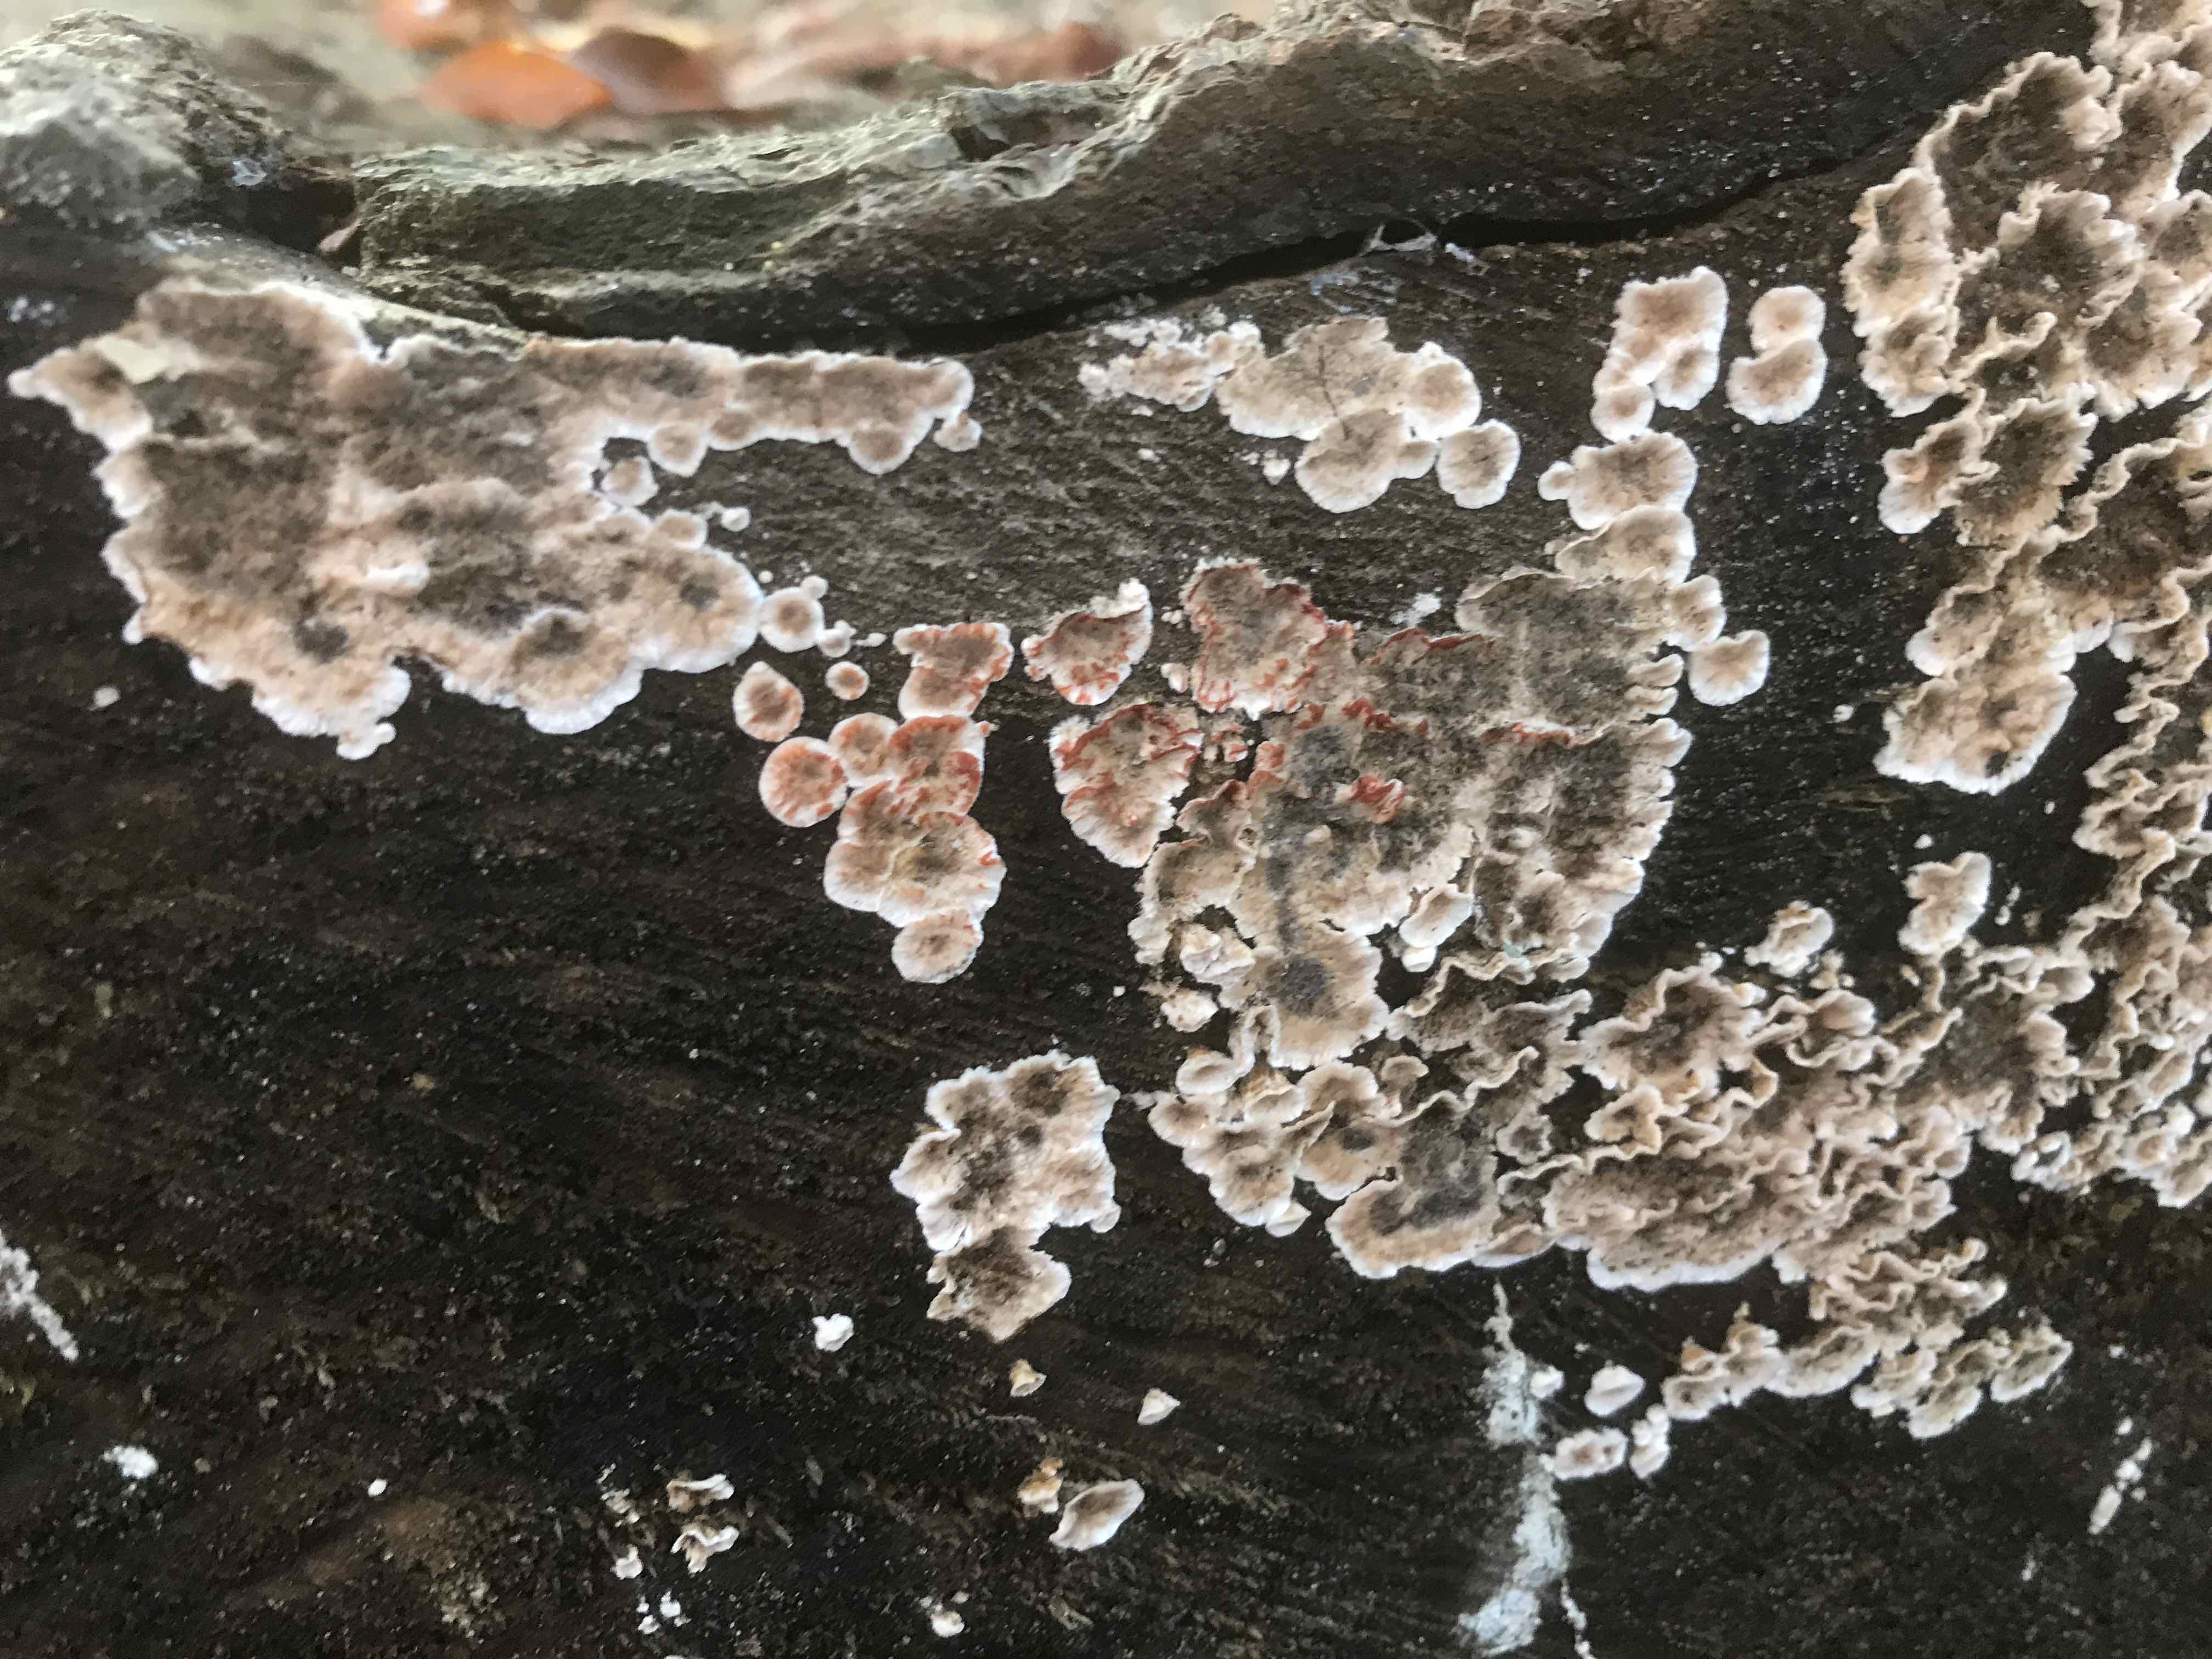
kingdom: Fungi
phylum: Basidiomycota
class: Agaricomycetes
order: Russulales
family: Stereaceae
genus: Stereum
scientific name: Stereum sanguinolentum
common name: blødende lædersvamp
